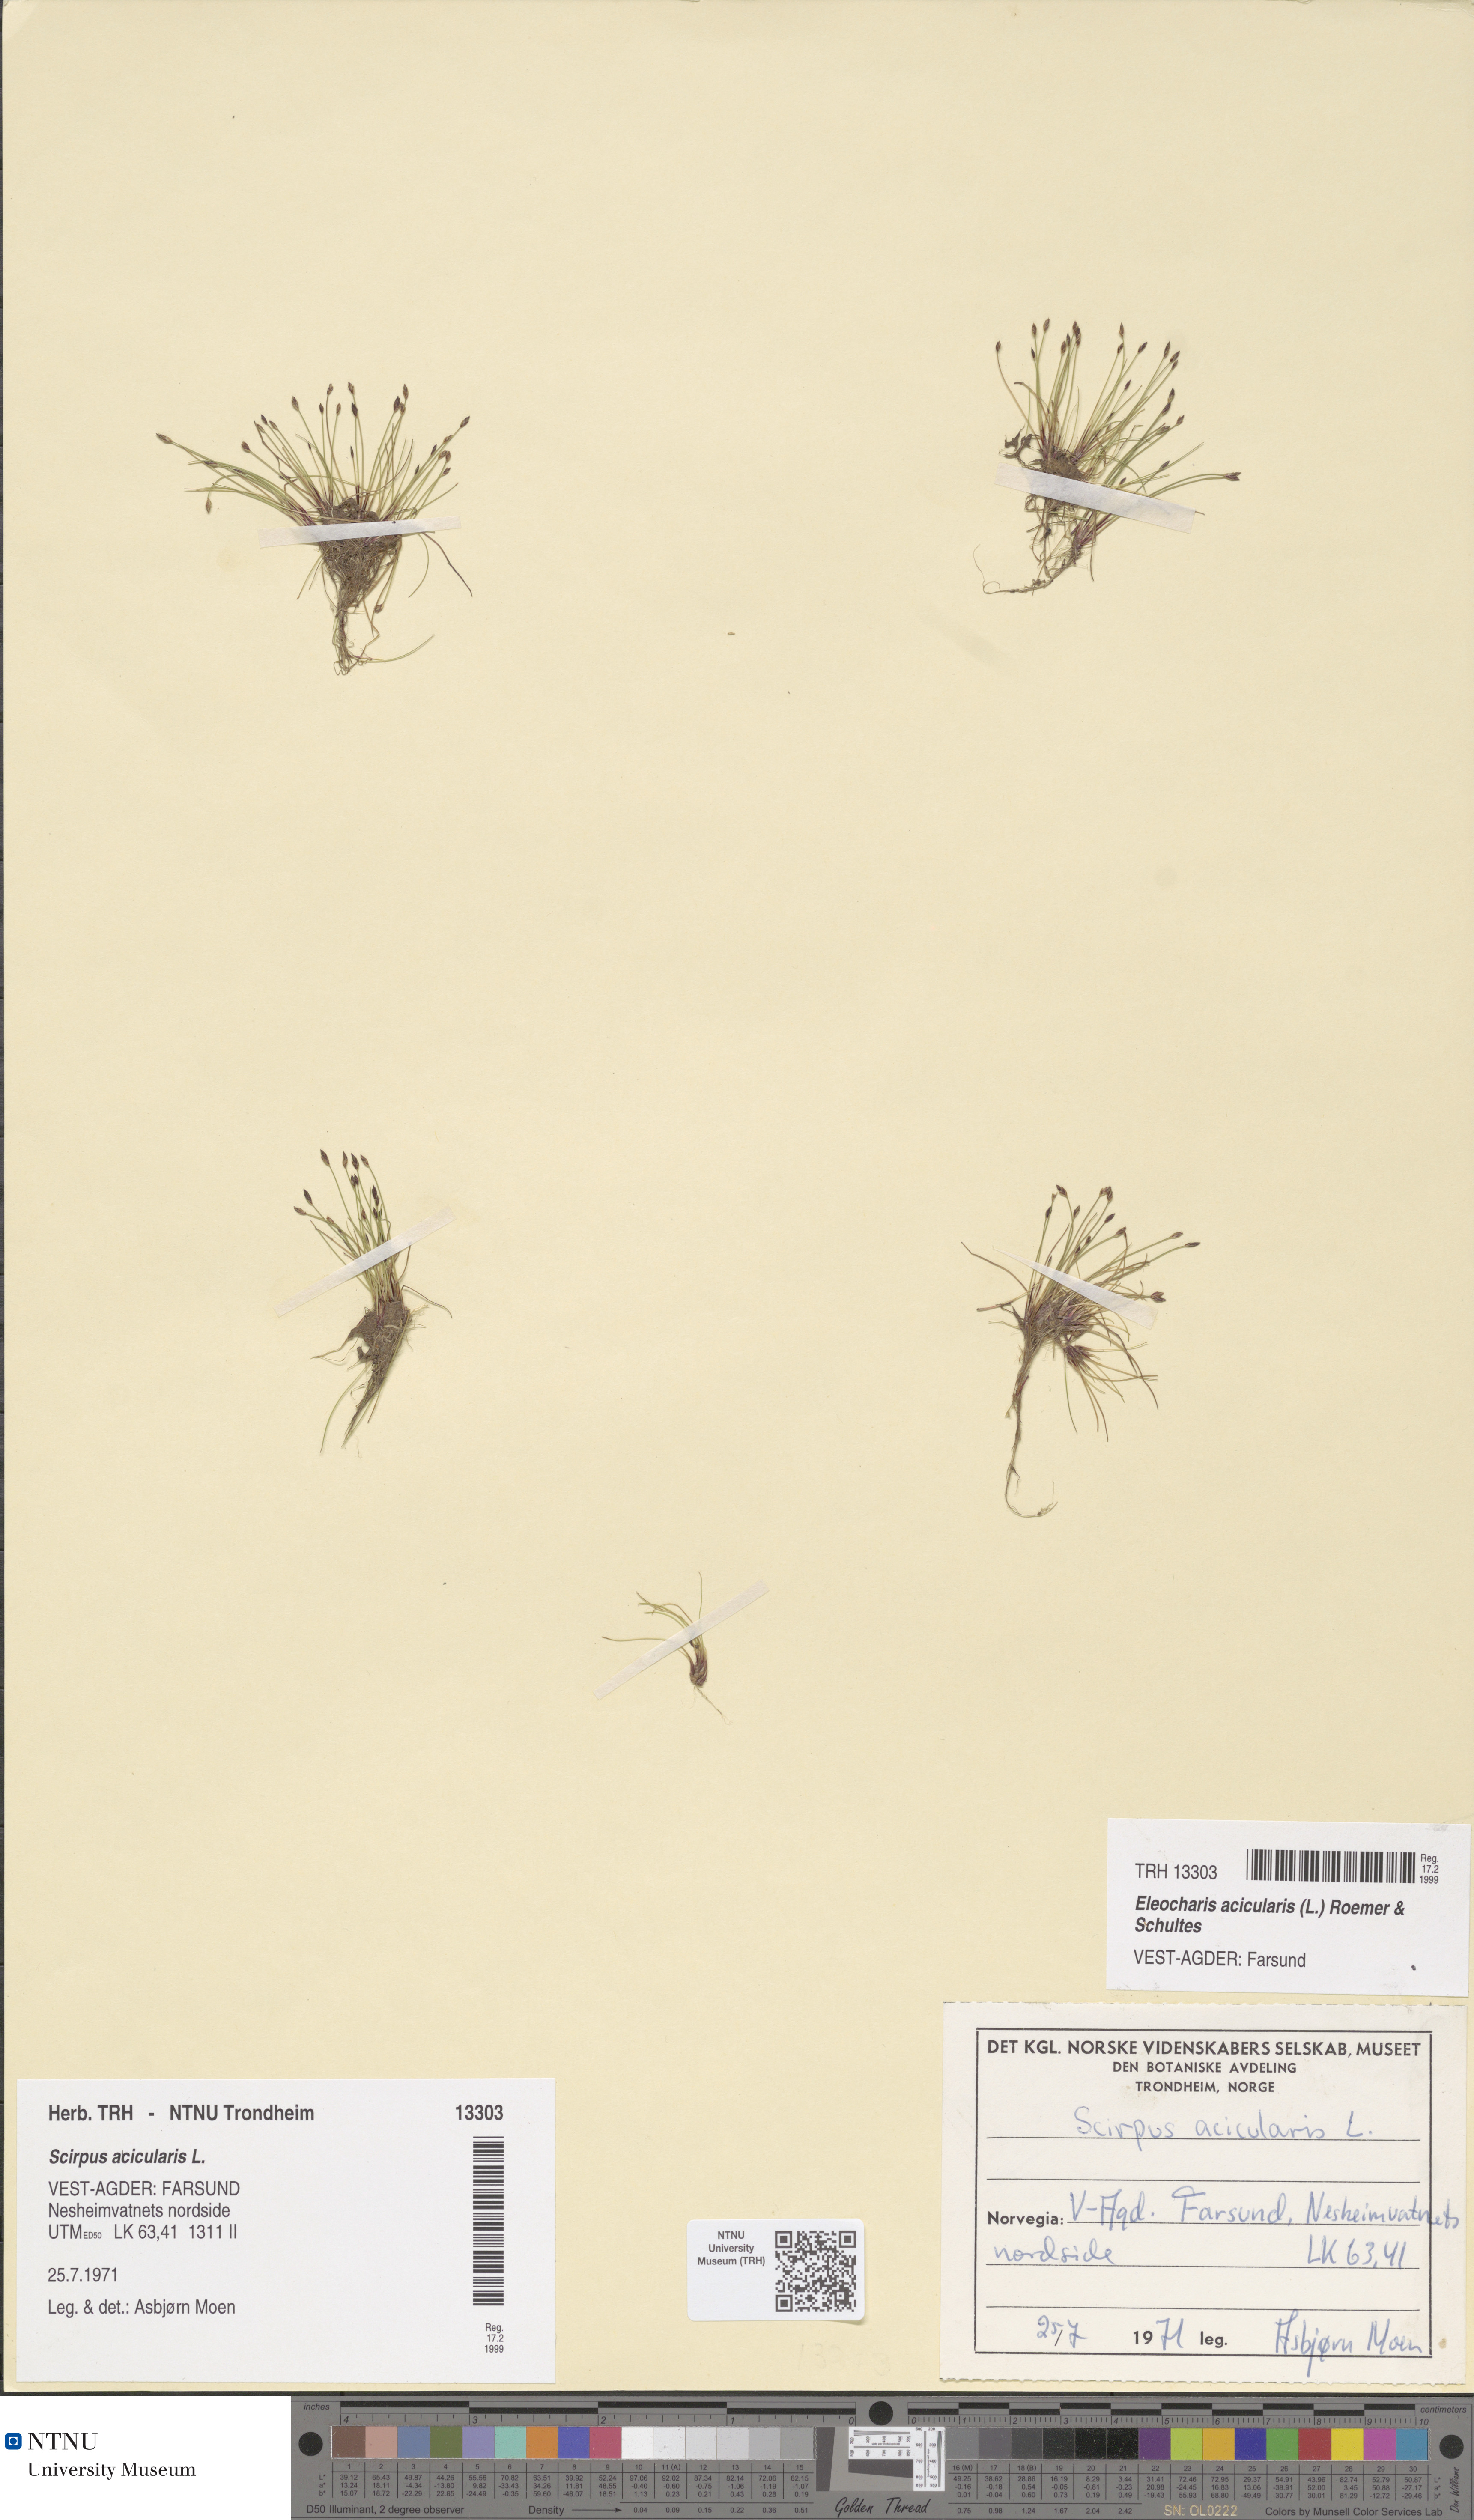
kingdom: Plantae
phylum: Tracheophyta
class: Liliopsida
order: Poales
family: Cyperaceae
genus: Eleocharis
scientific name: Eleocharis acicularis
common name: Needle spike-rush
